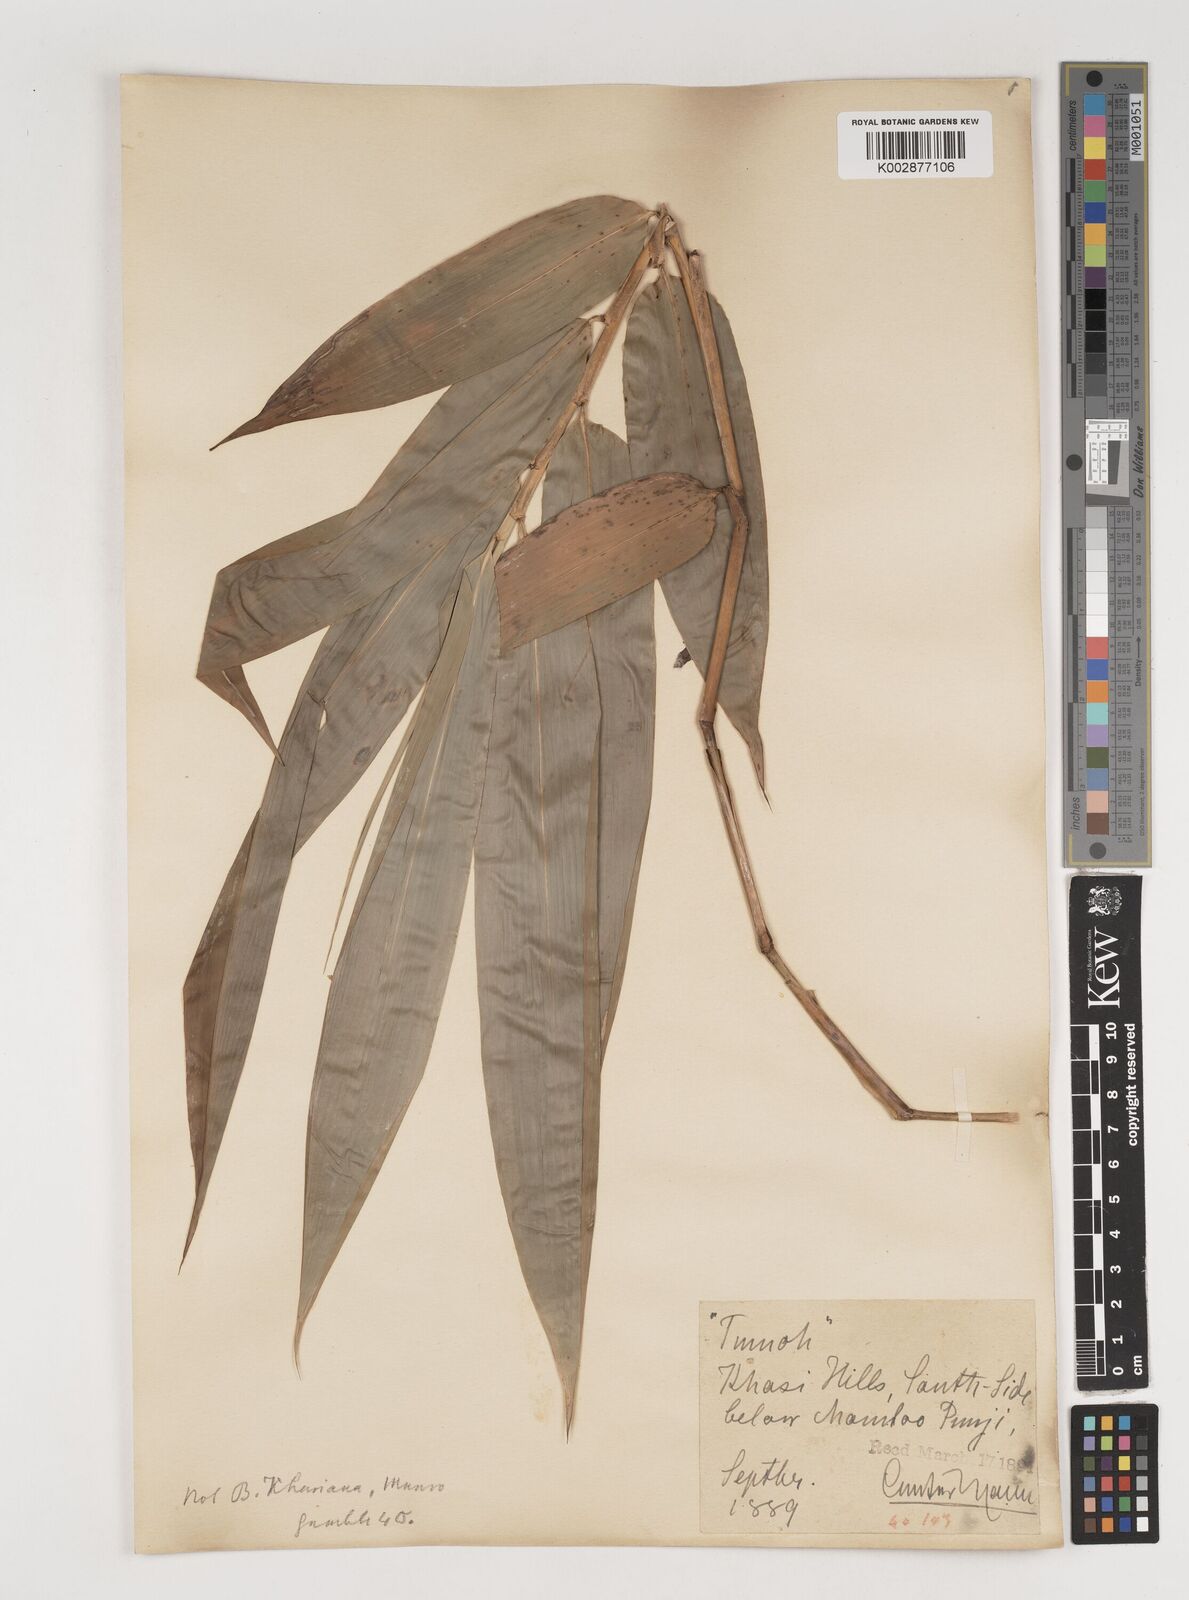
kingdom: Plantae
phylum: Tracheophyta
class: Liliopsida
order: Poales
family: Poaceae
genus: Bambusa
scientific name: Bambusa
